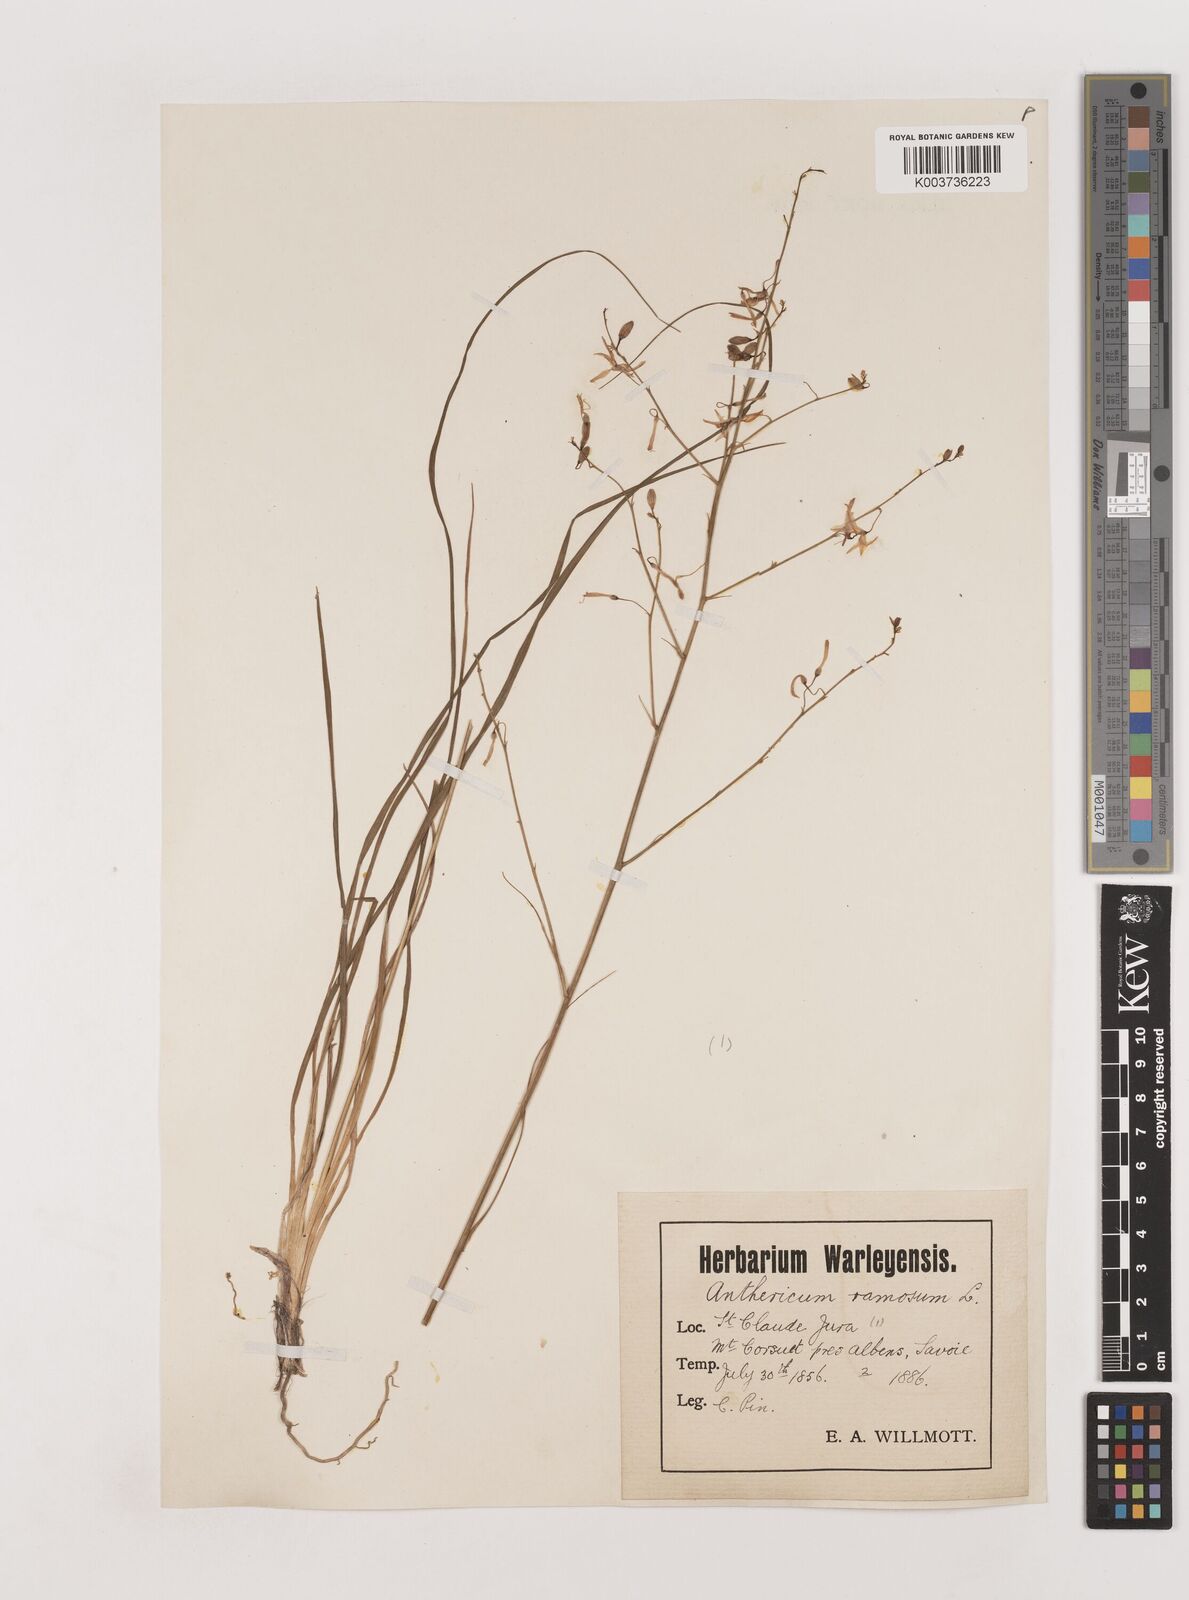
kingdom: Plantae
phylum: Tracheophyta
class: Liliopsida
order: Asparagales
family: Asparagaceae
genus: Anthericum
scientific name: Anthericum ramosum
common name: Branched st. bernard's-lily
